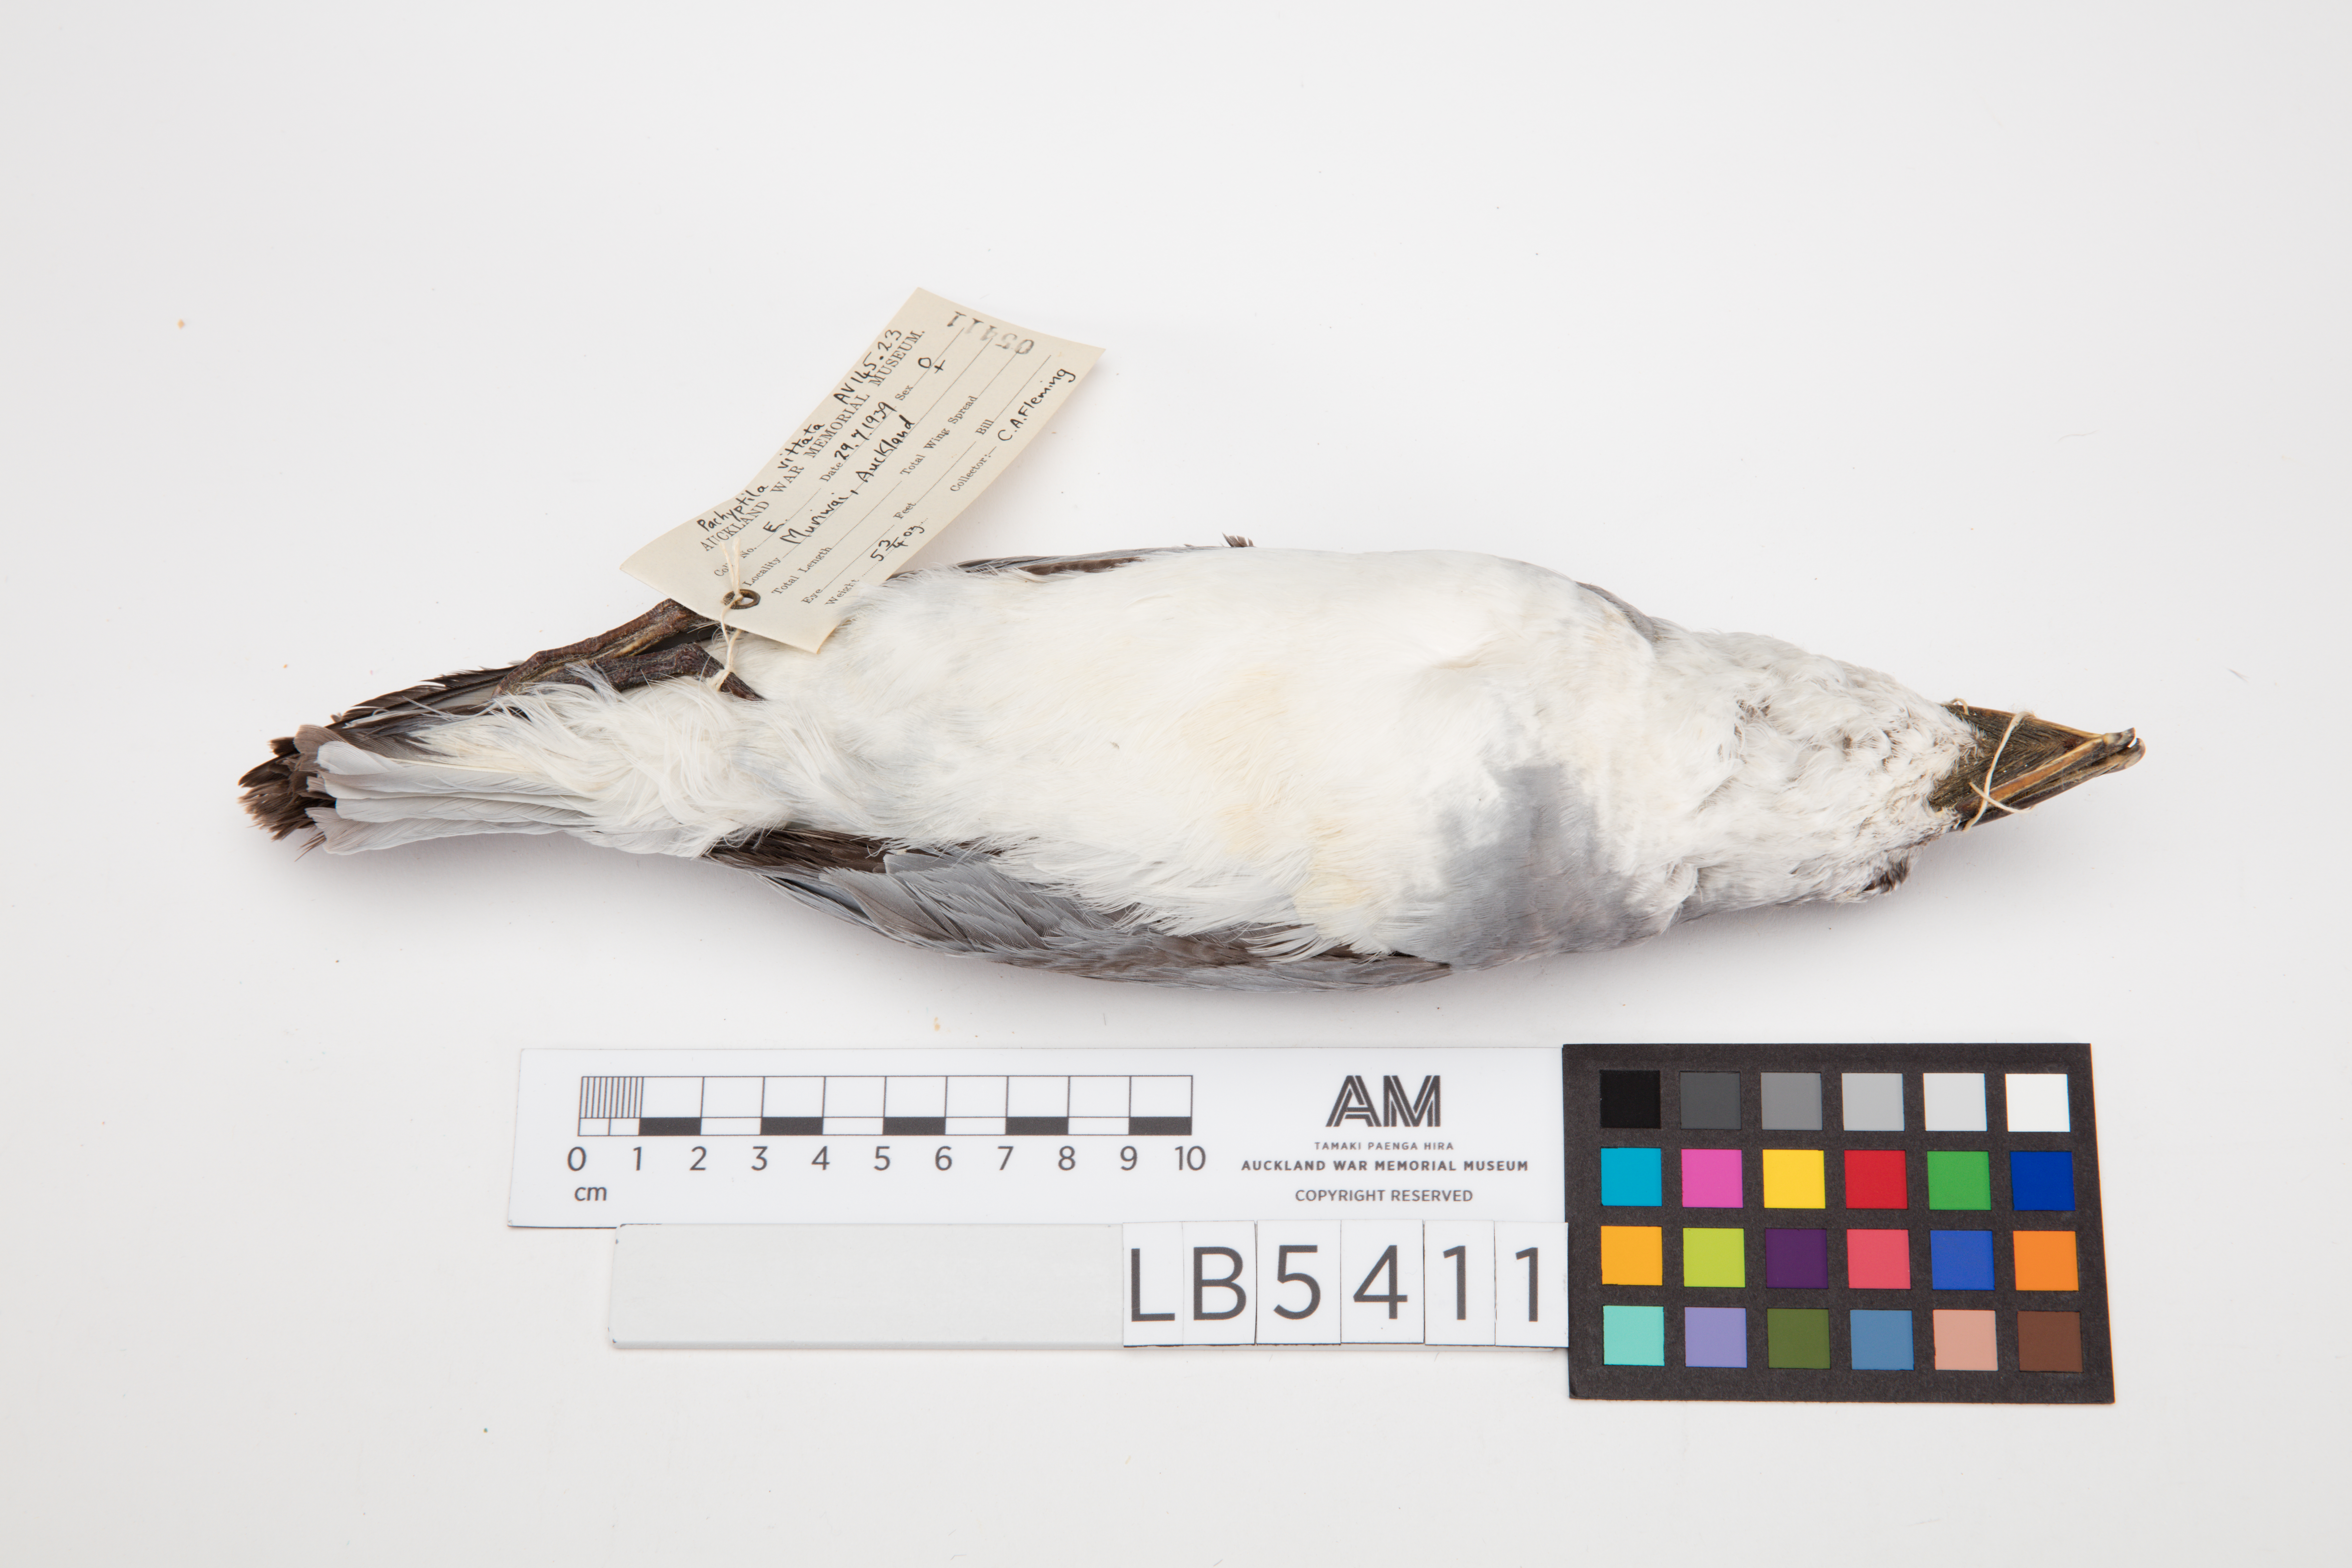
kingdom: Animalia
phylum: Chordata
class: Aves
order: Procellariiformes
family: Procellariidae
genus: Pachyptila
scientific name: Pachyptila vittata
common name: Broad-billed prion
